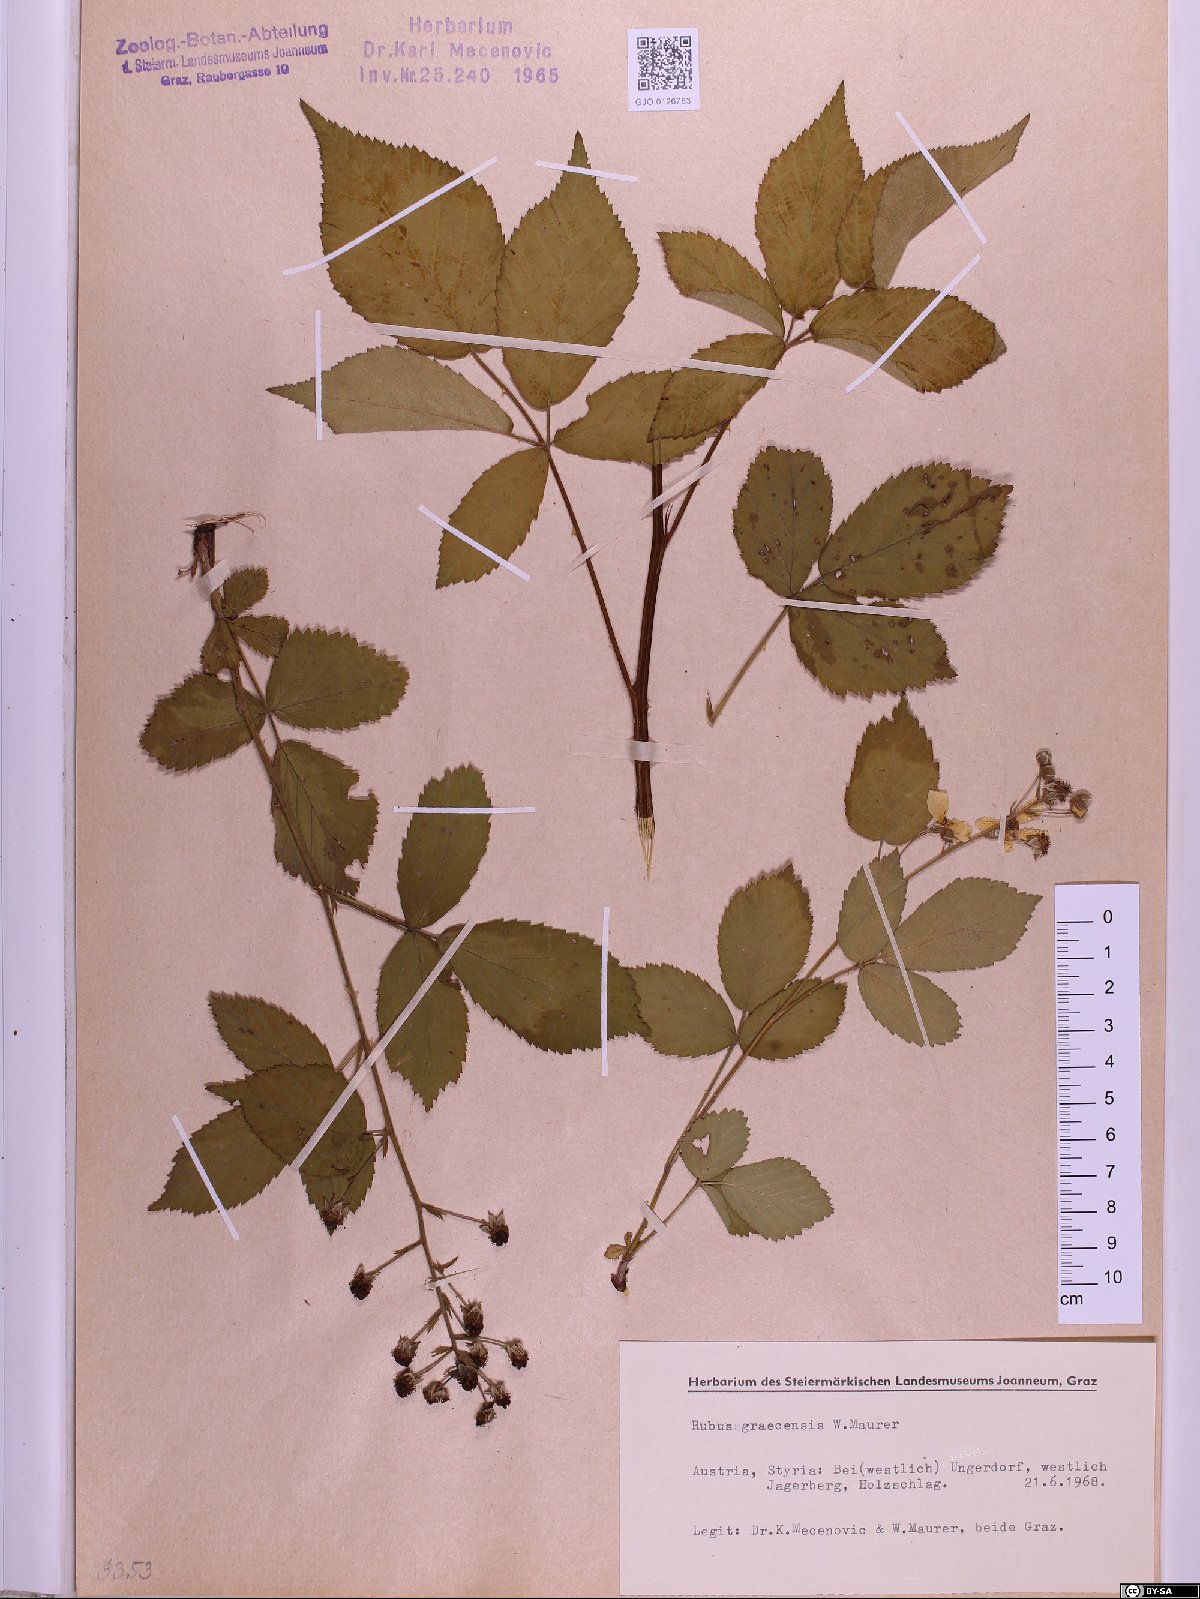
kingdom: Plantae
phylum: Tracheophyta
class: Magnoliopsida
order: Rosales
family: Rosaceae
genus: Rubus
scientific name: Rubus graecensis
